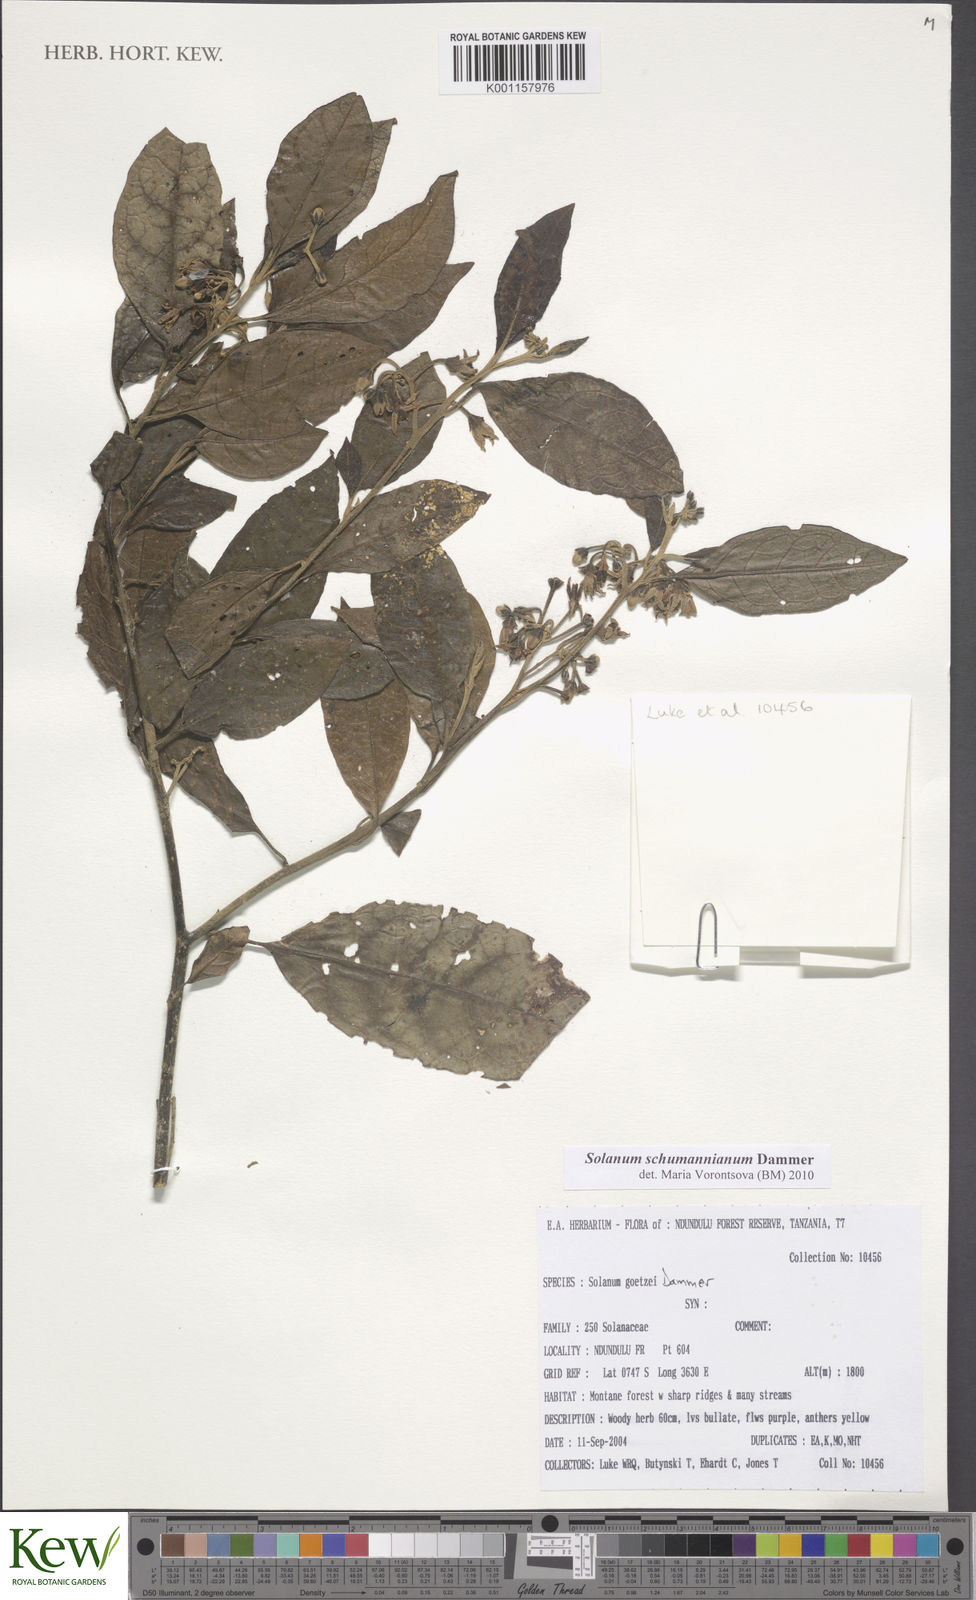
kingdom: Plantae
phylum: Tracheophyta
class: Magnoliopsida
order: Solanales
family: Solanaceae
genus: Solanum
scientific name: Solanum schumannianum
